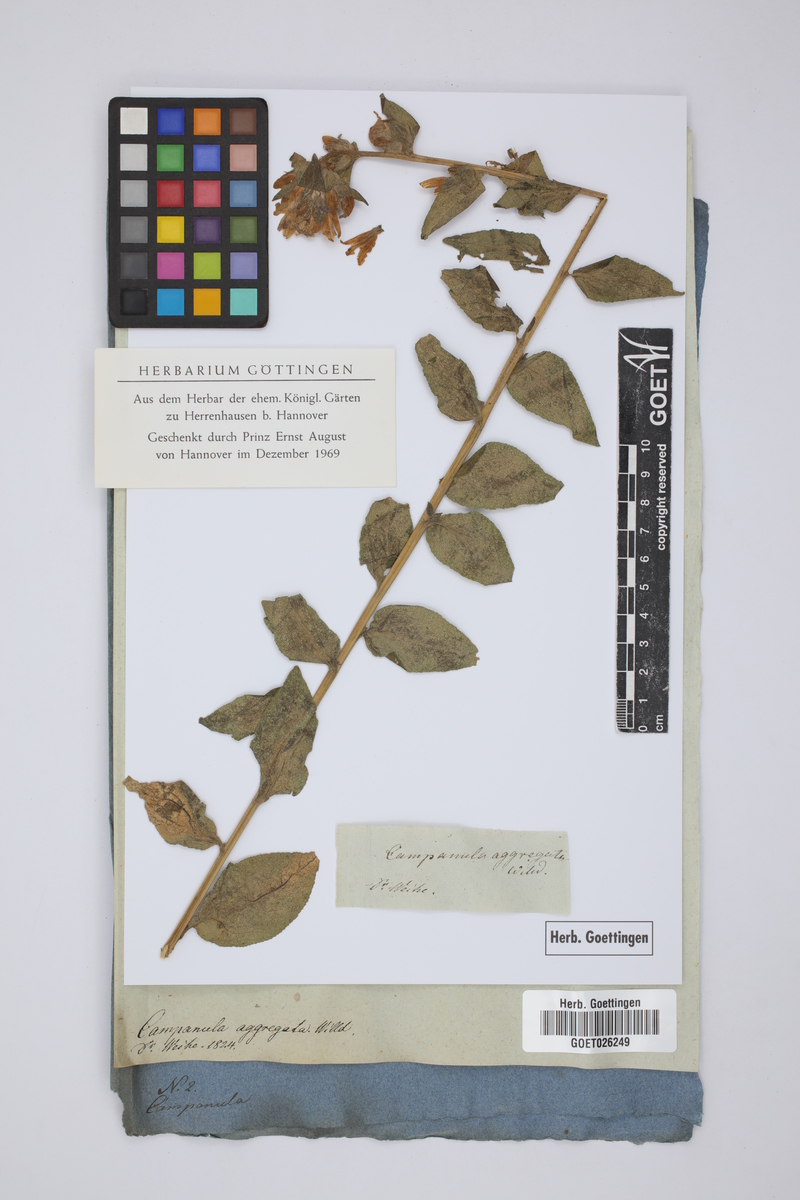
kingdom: Plantae
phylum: Tracheophyta
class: Magnoliopsida
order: Asterales
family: Campanulaceae
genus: Campanula
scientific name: Campanula glomerata
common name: Clustered bellflower
